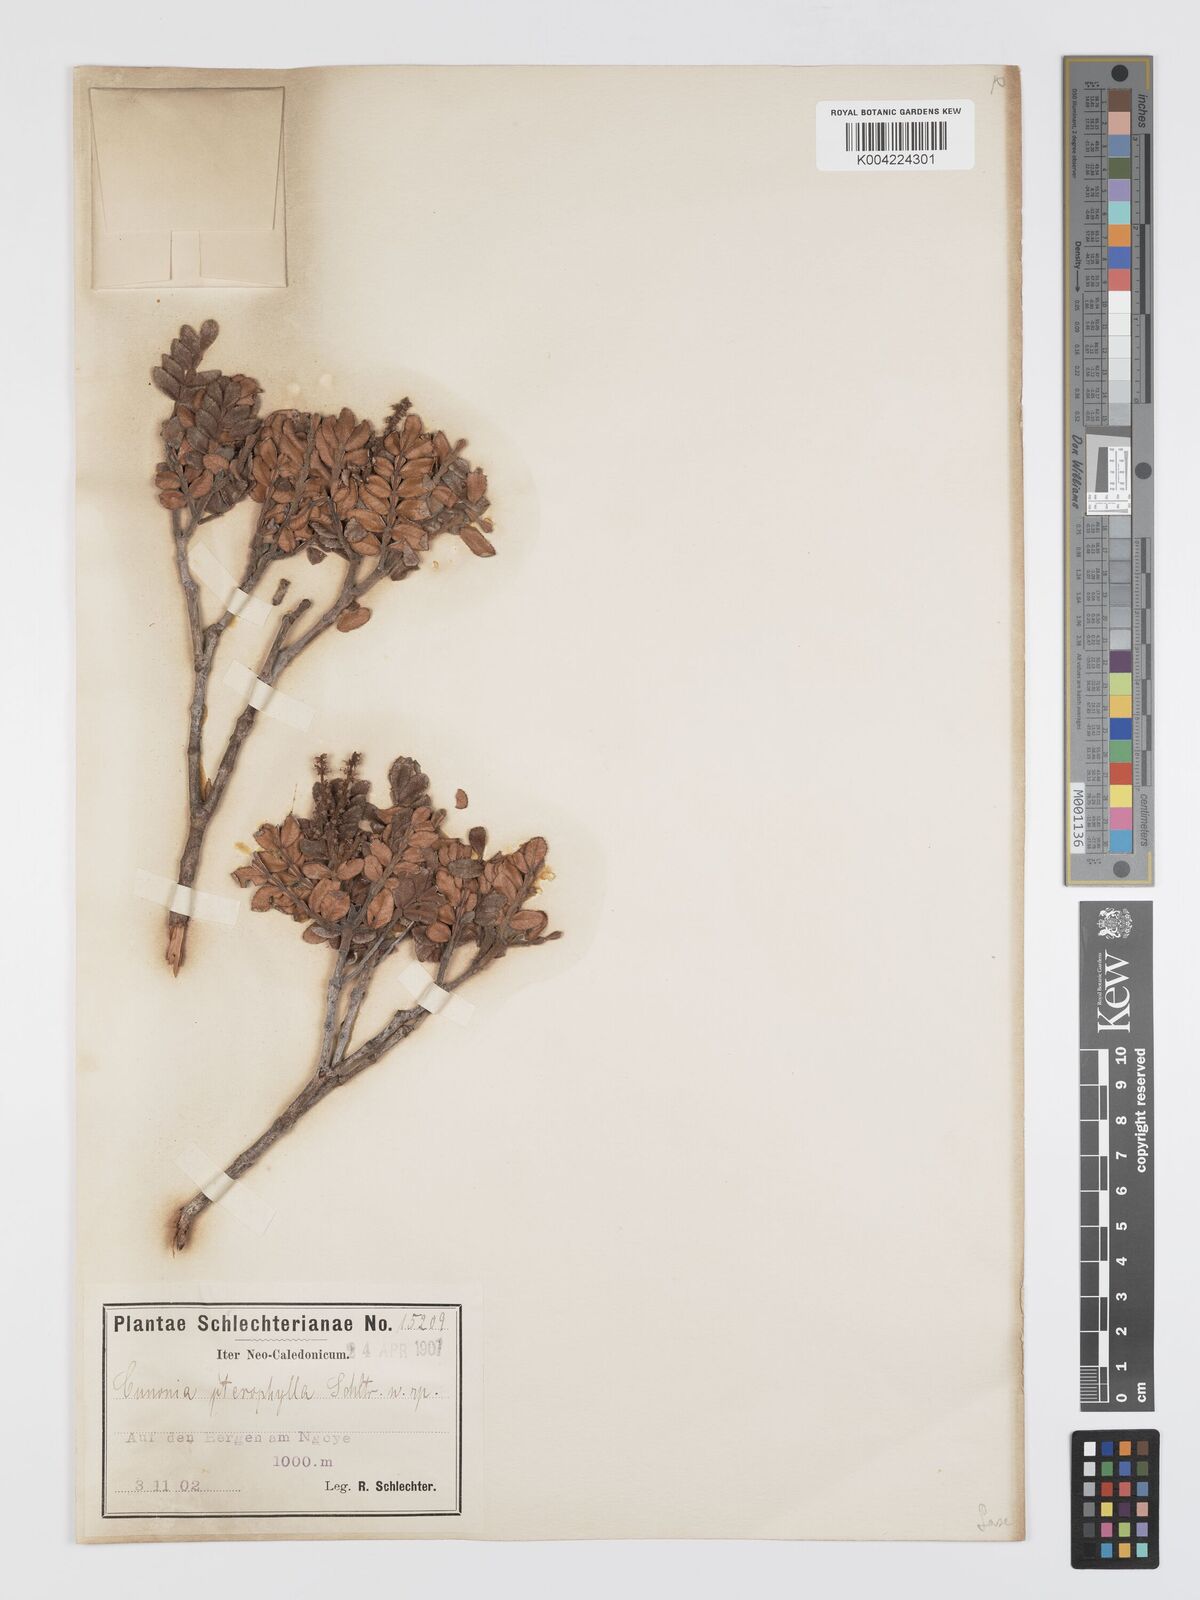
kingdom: Plantae
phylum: Tracheophyta
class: Magnoliopsida
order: Oxalidales
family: Cunoniaceae
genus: Cunonia
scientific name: Cunonia pterophylla
